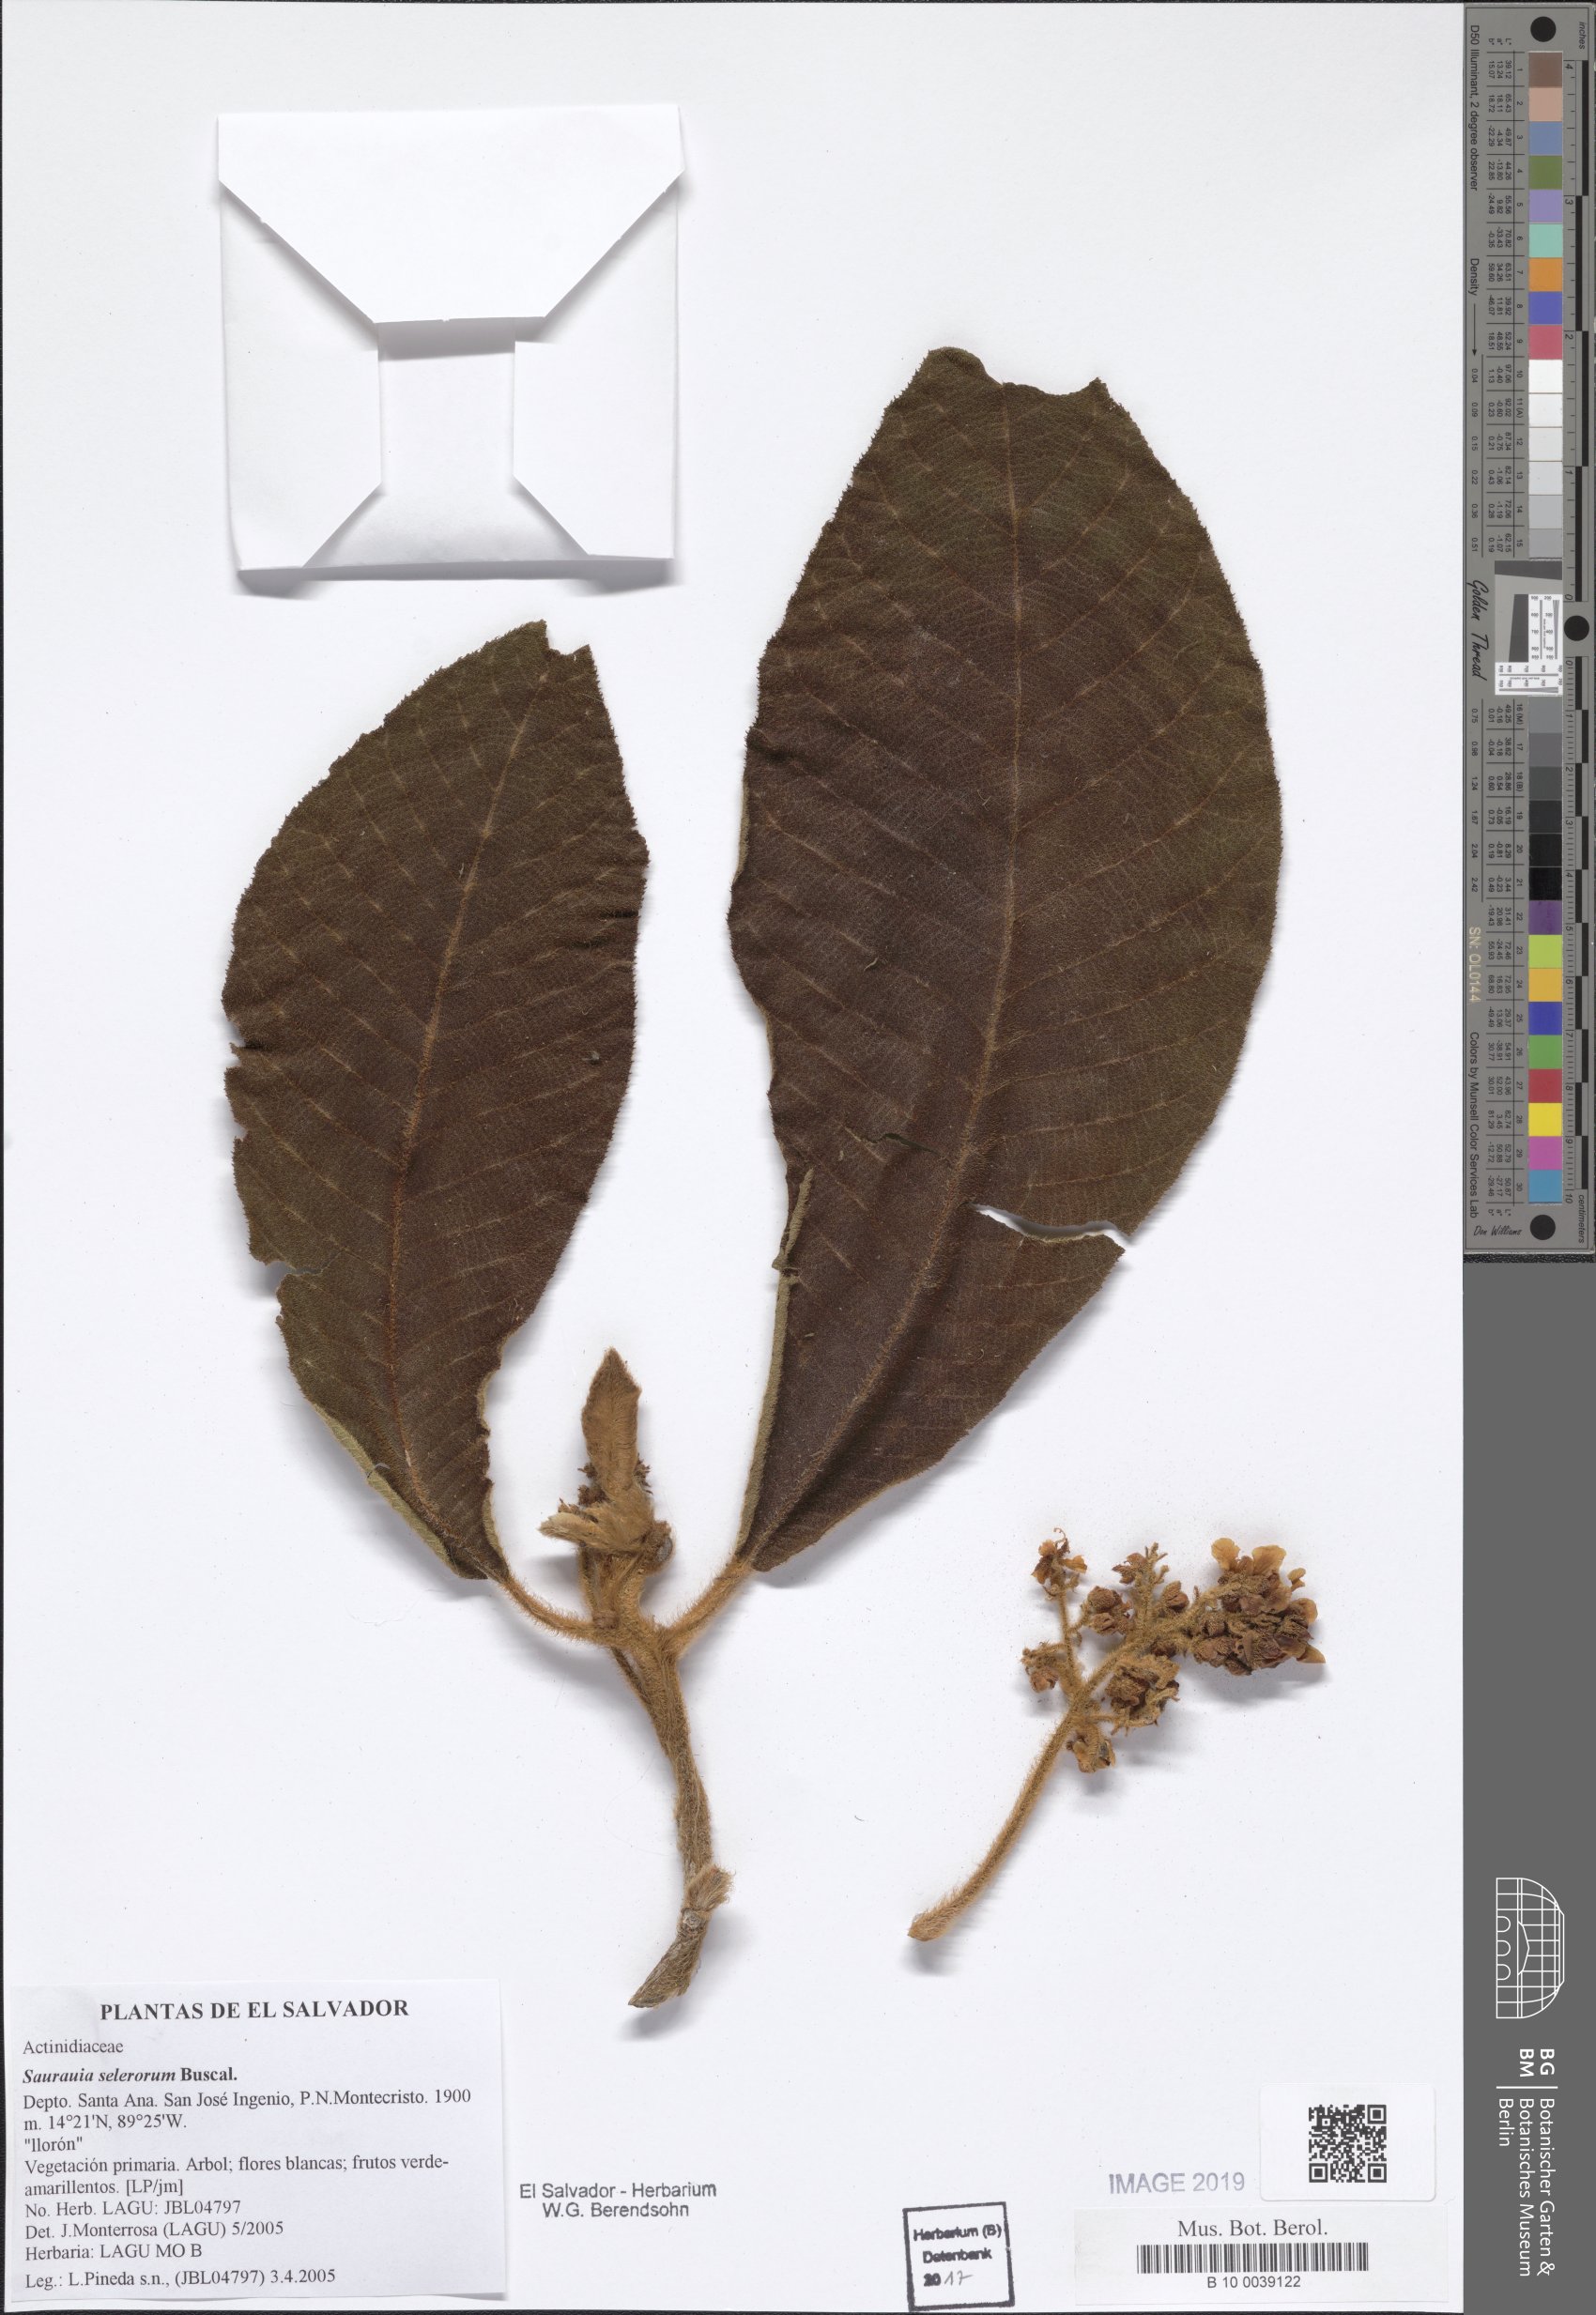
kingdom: Plantae
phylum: Tracheophyta
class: Magnoliopsida
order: Ericales
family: Actinidiaceae
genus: Saurauia
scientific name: Saurauia selerorum
